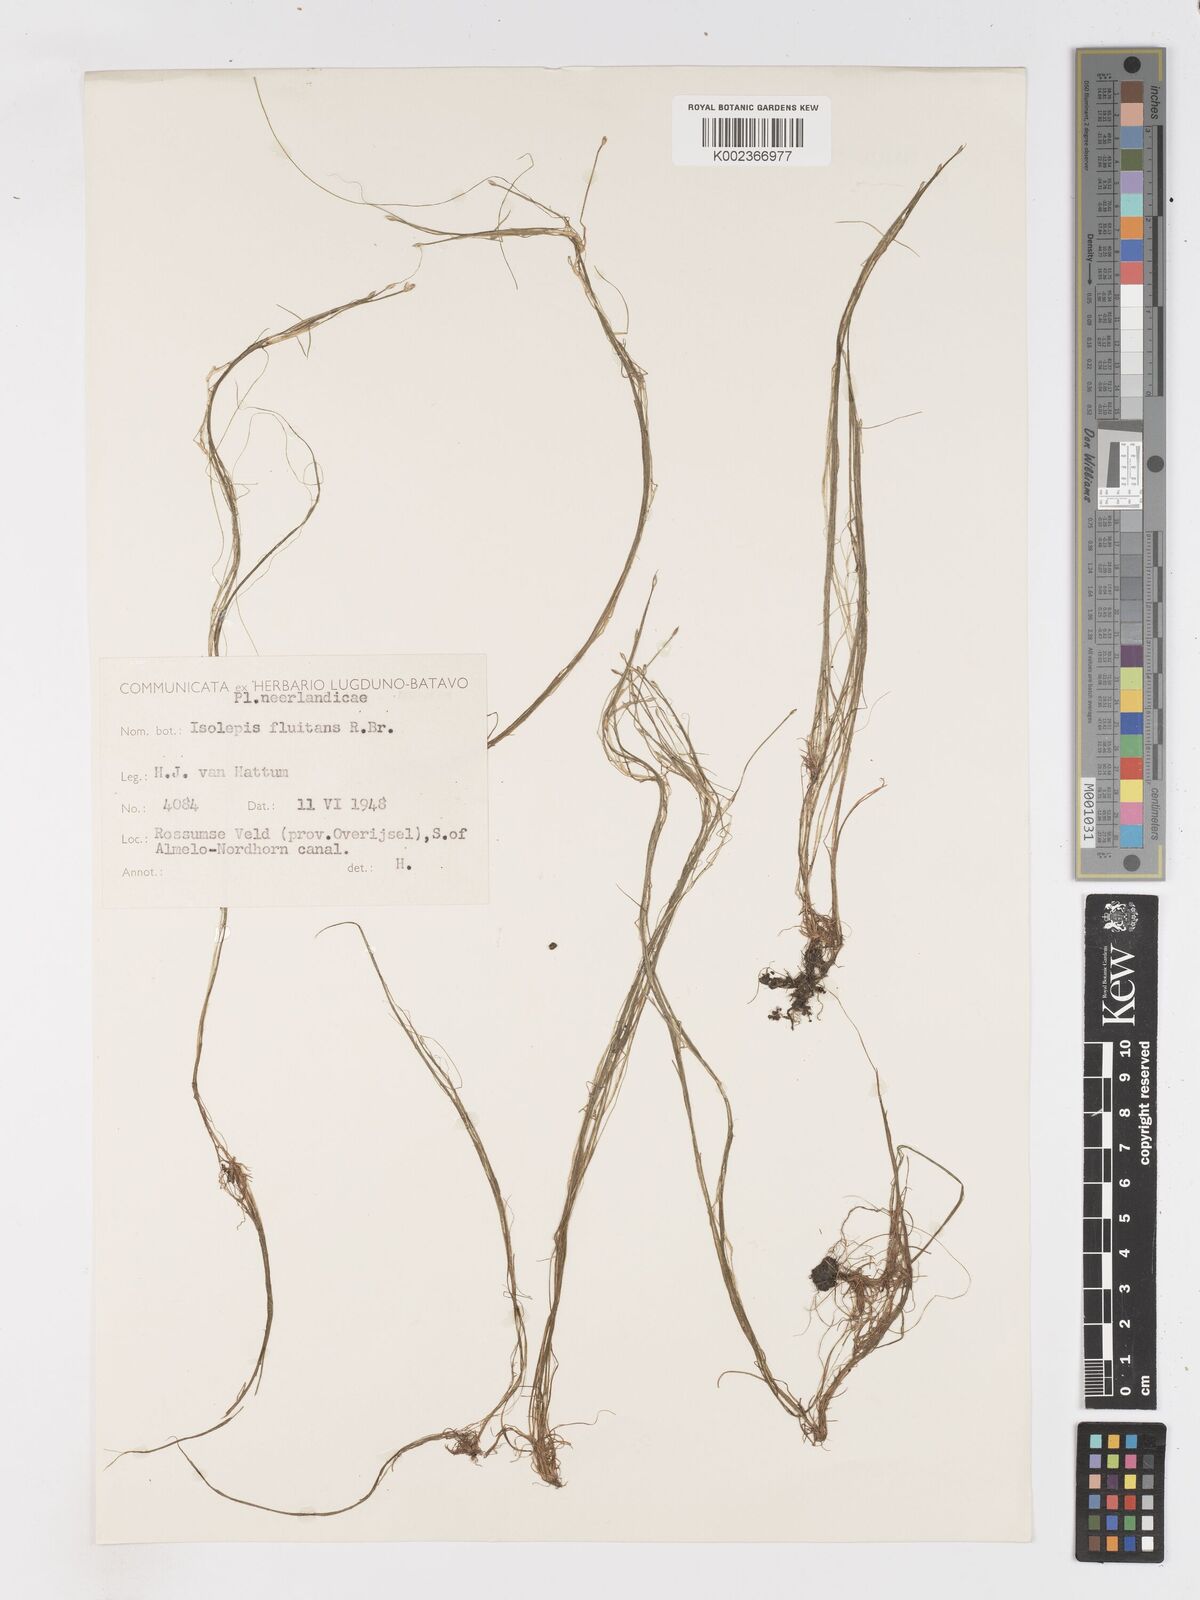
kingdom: Plantae
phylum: Tracheophyta
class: Liliopsida
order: Poales
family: Cyperaceae
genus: Isolepis
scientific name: Isolepis fluitans
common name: Floating club-rush
